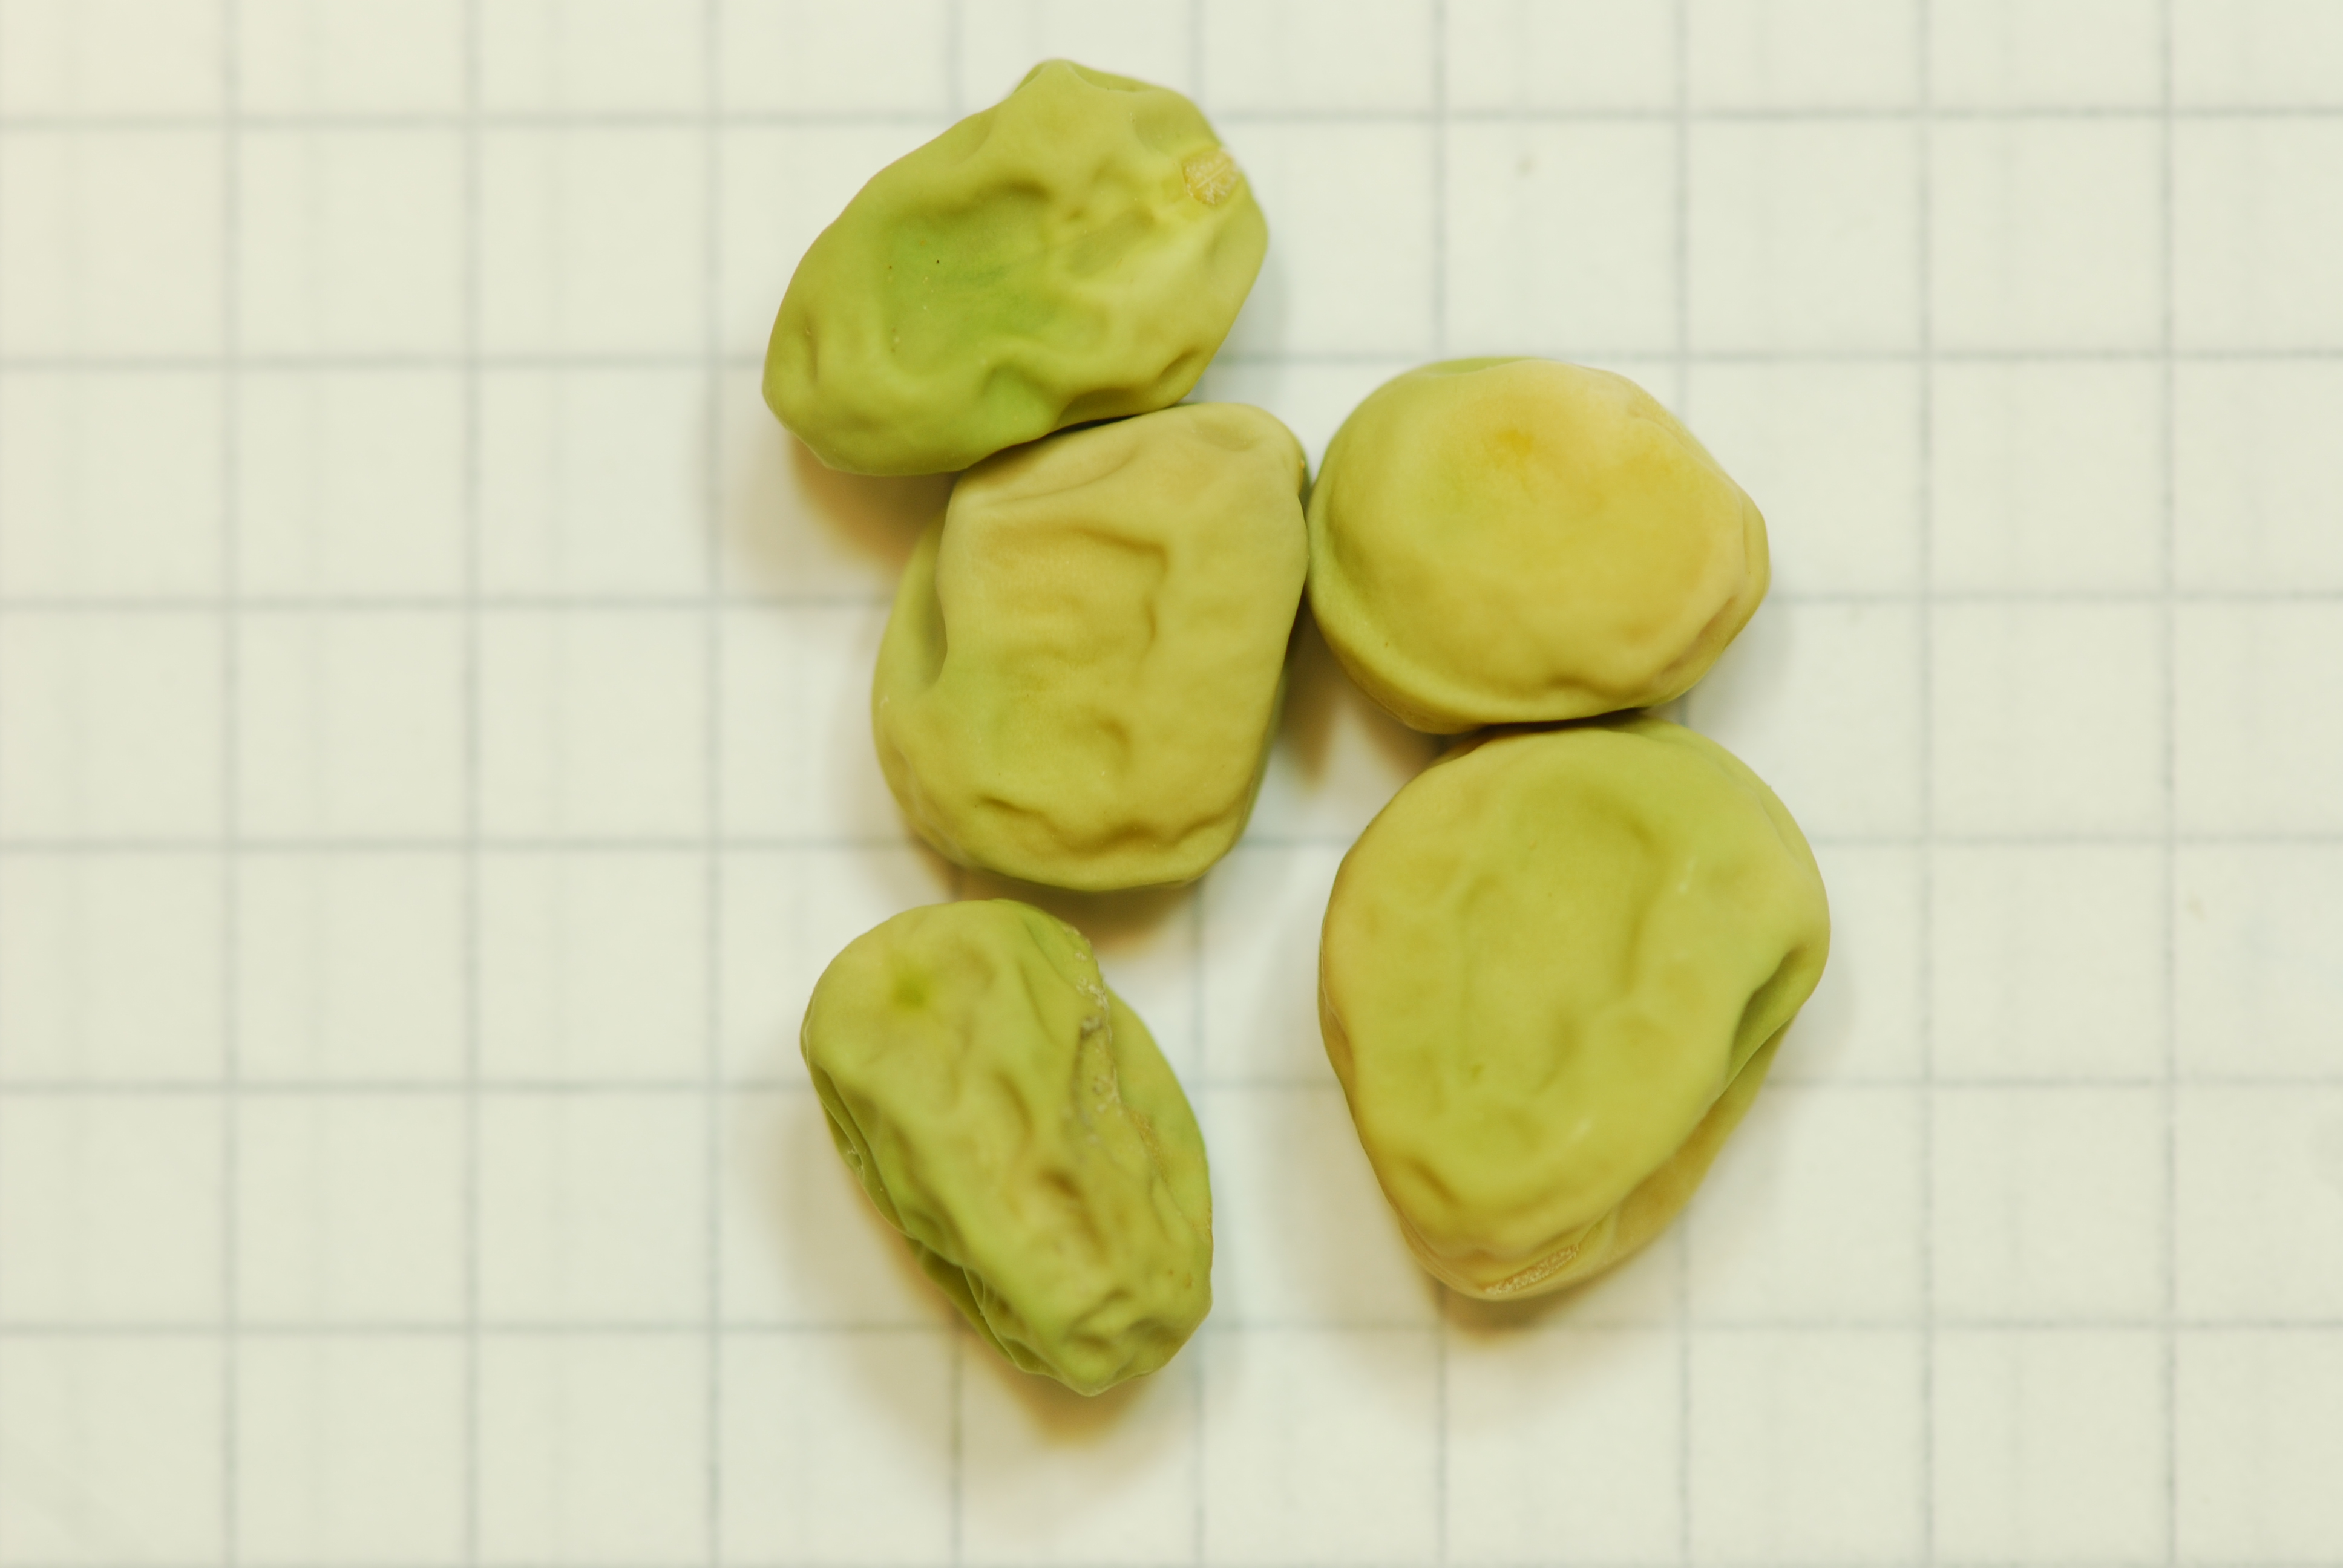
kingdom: Plantae
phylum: Tracheophyta
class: Magnoliopsida
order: Fabales
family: Fabaceae
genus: Lathyrus
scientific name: Lathyrus oleraceus
